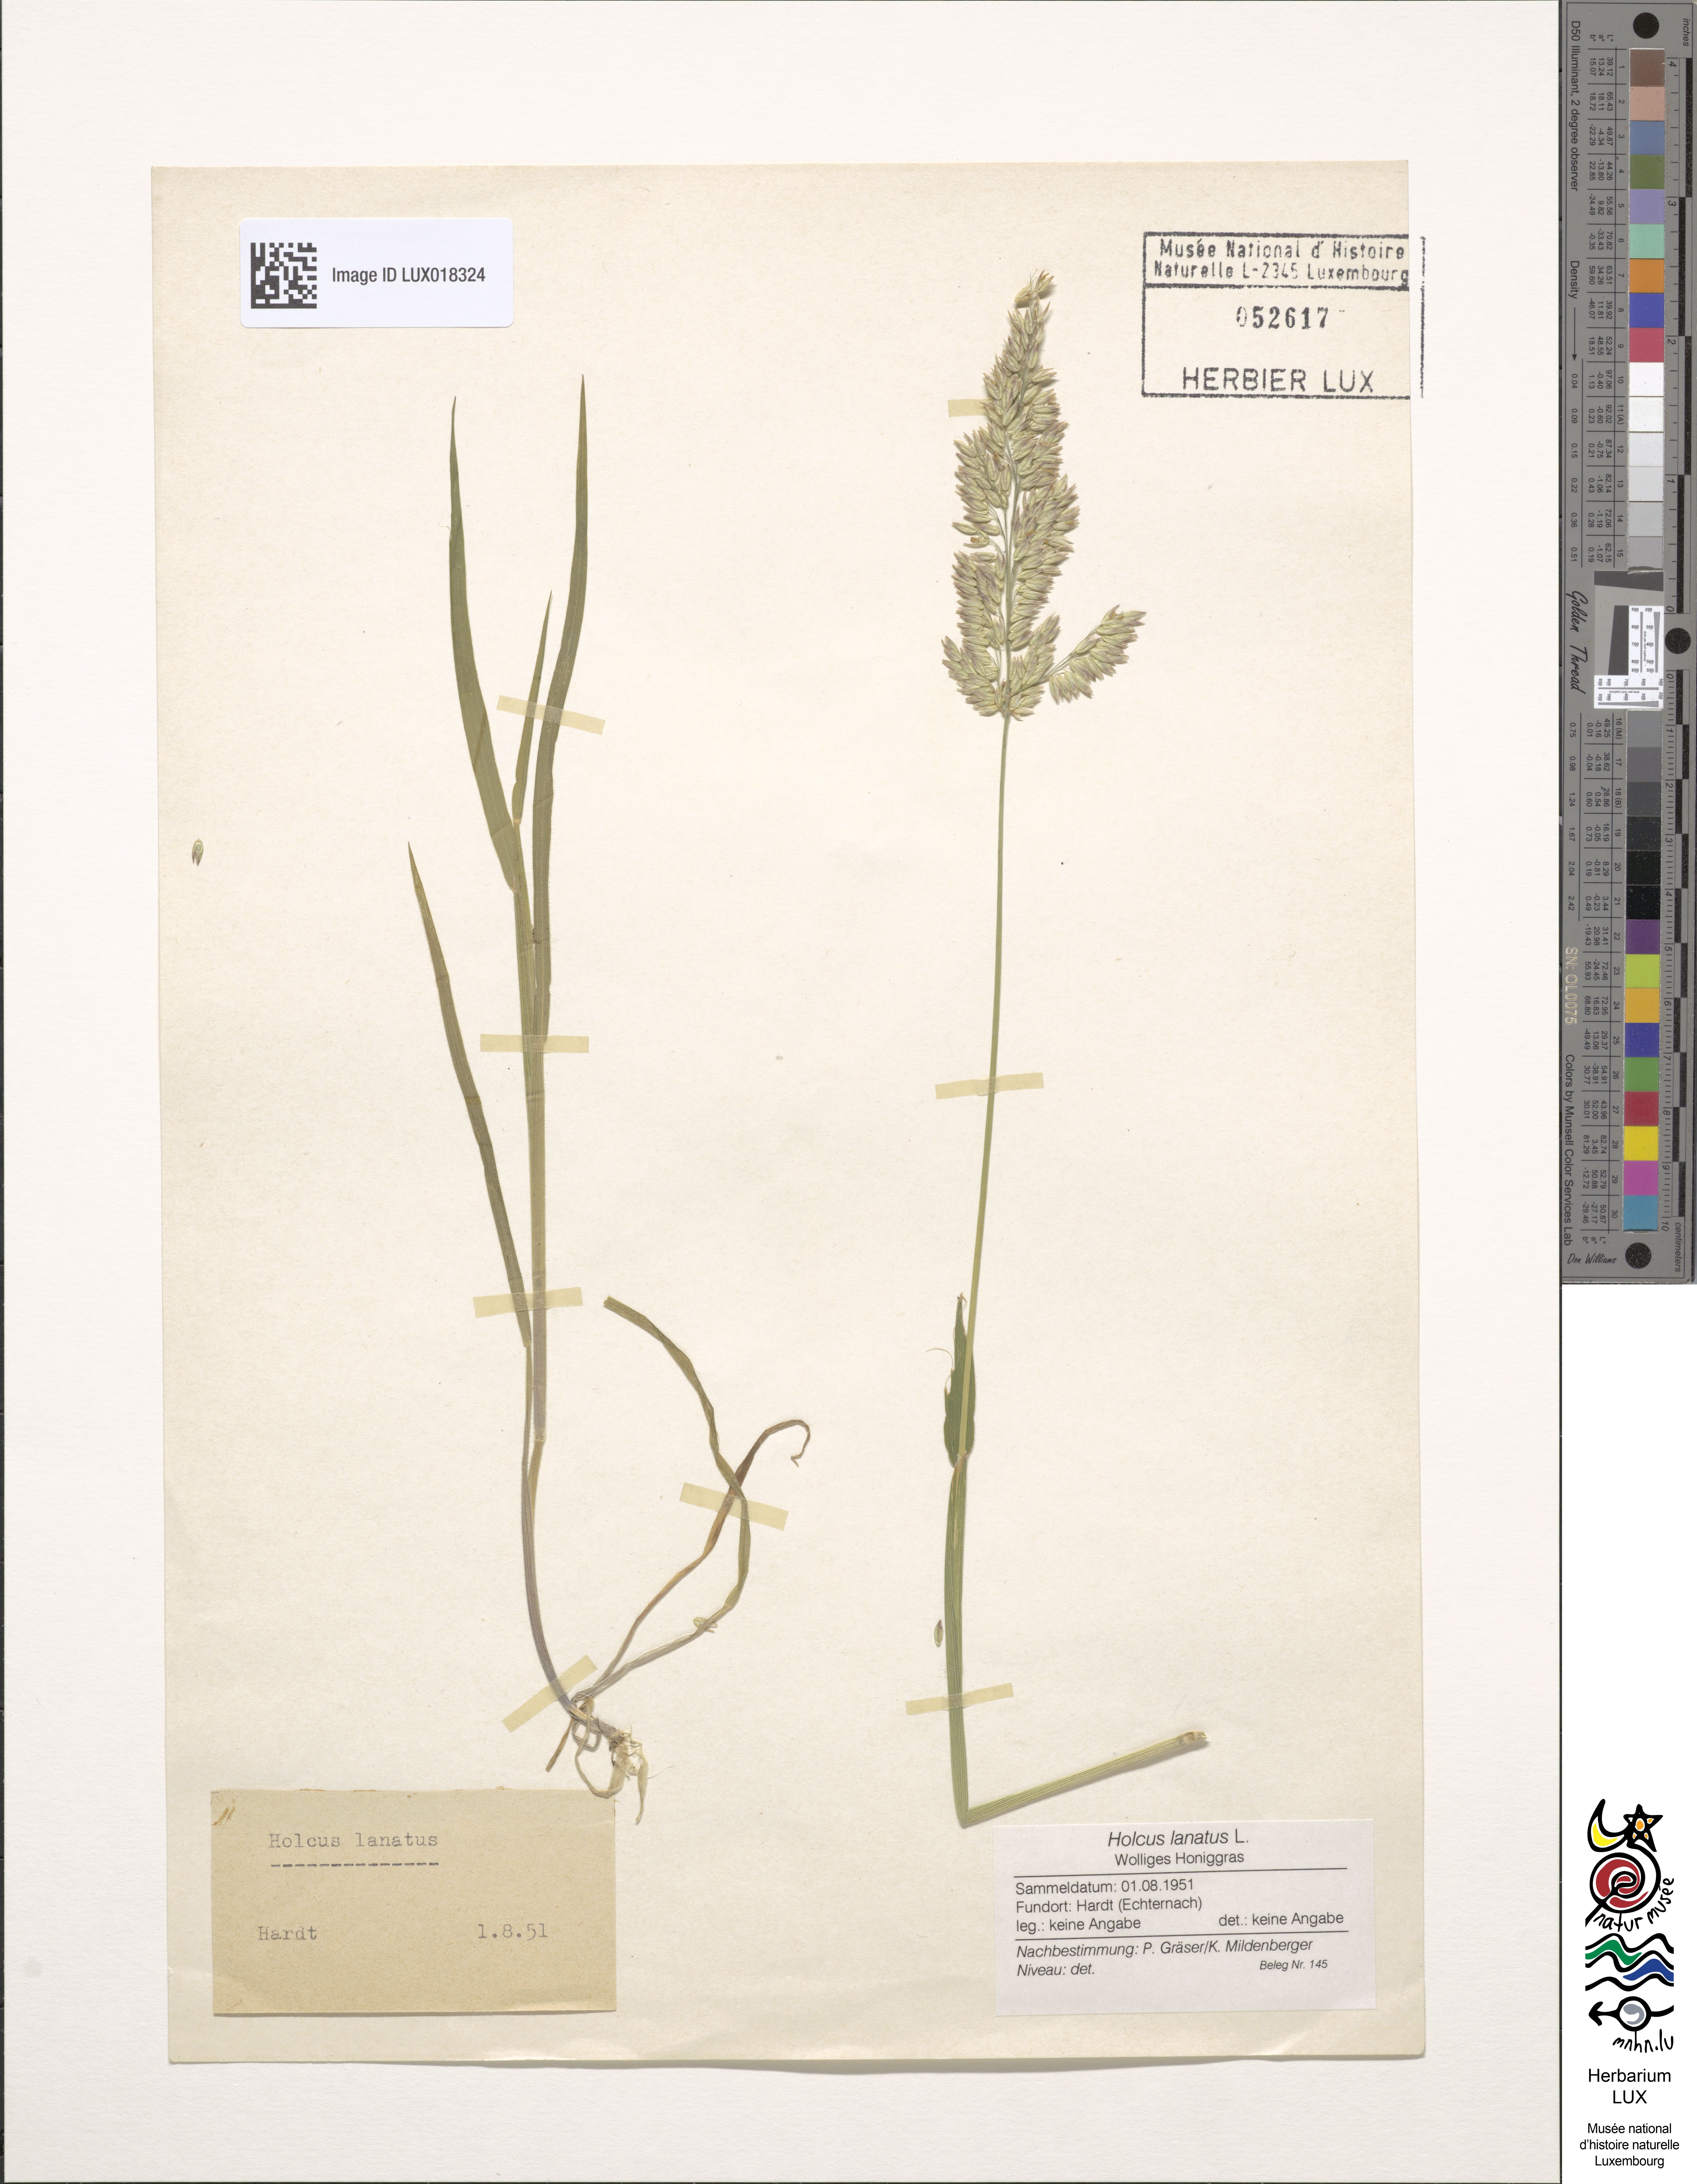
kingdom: Plantae
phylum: Tracheophyta
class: Liliopsida
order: Poales
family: Poaceae
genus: Holcus
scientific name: Holcus lanatus
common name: Yorkshire-fog
